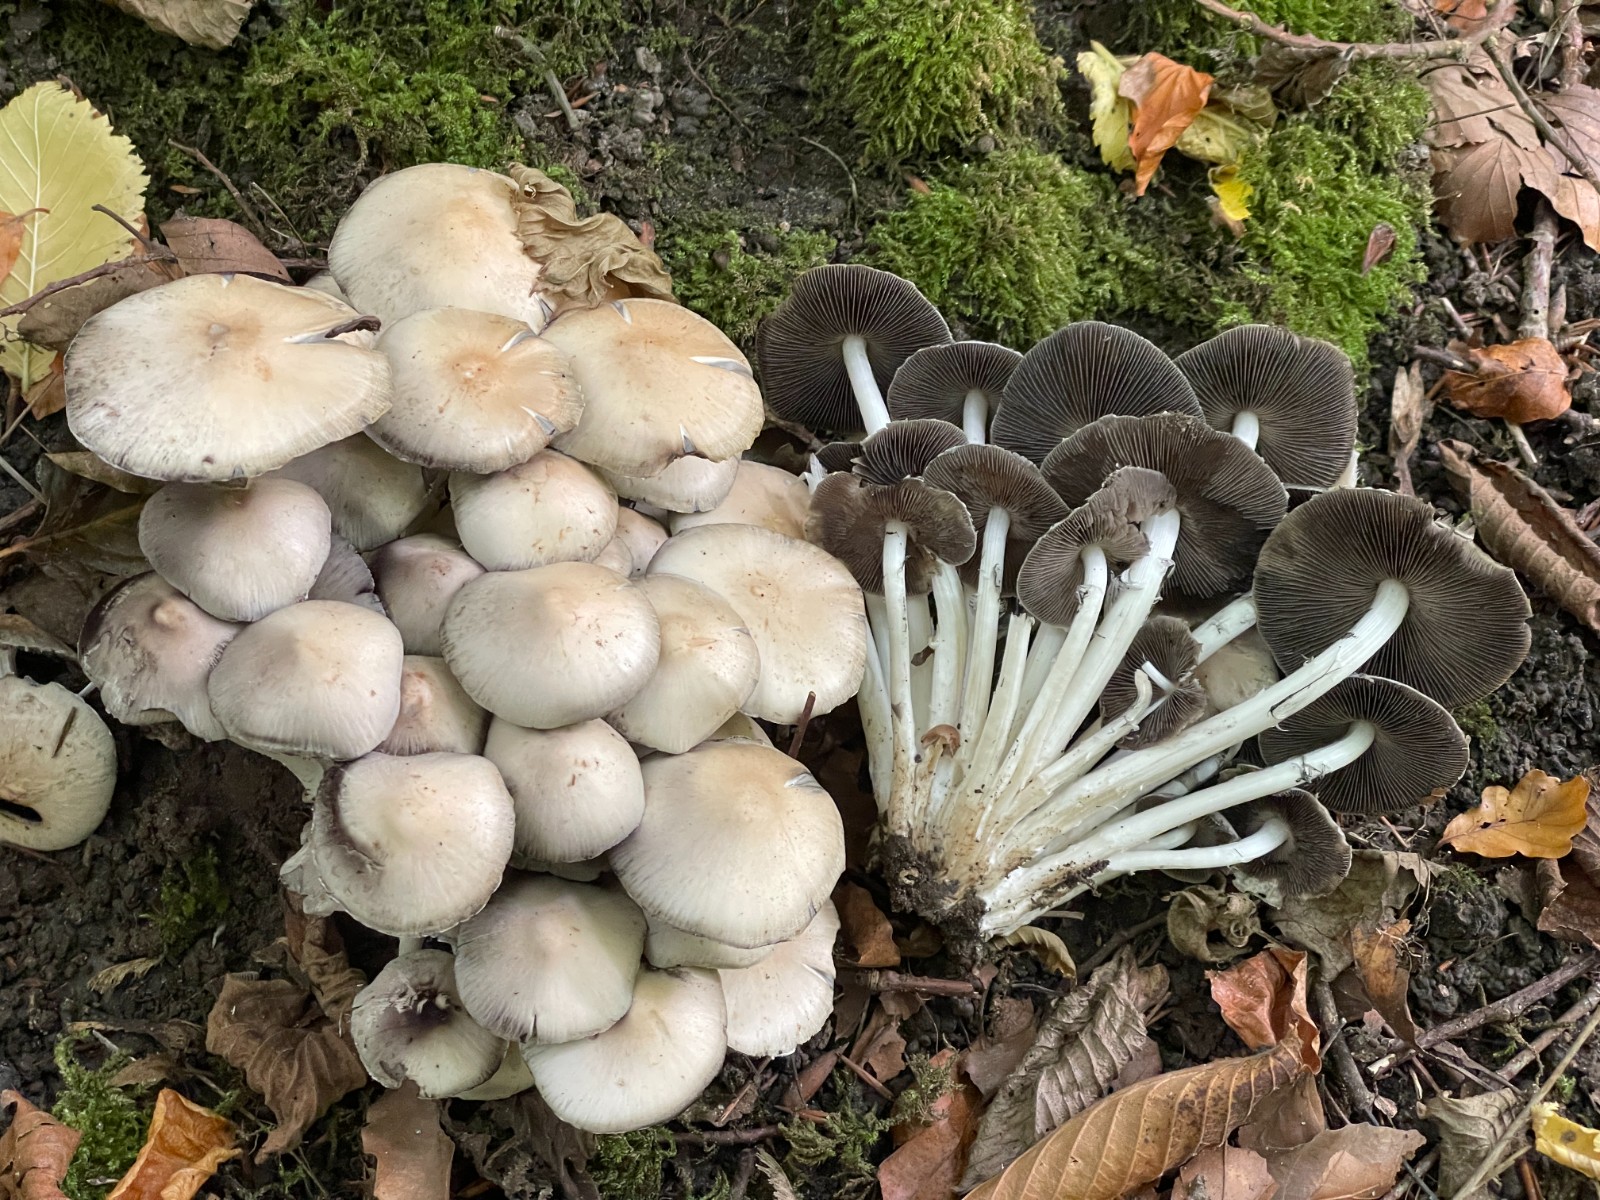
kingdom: Fungi
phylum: Basidiomycota
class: Agaricomycetes
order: Agaricales
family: Psathyrellaceae
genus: Candolleomyces
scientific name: Candolleomyces leucotephrus
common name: askehvid mørkhat
